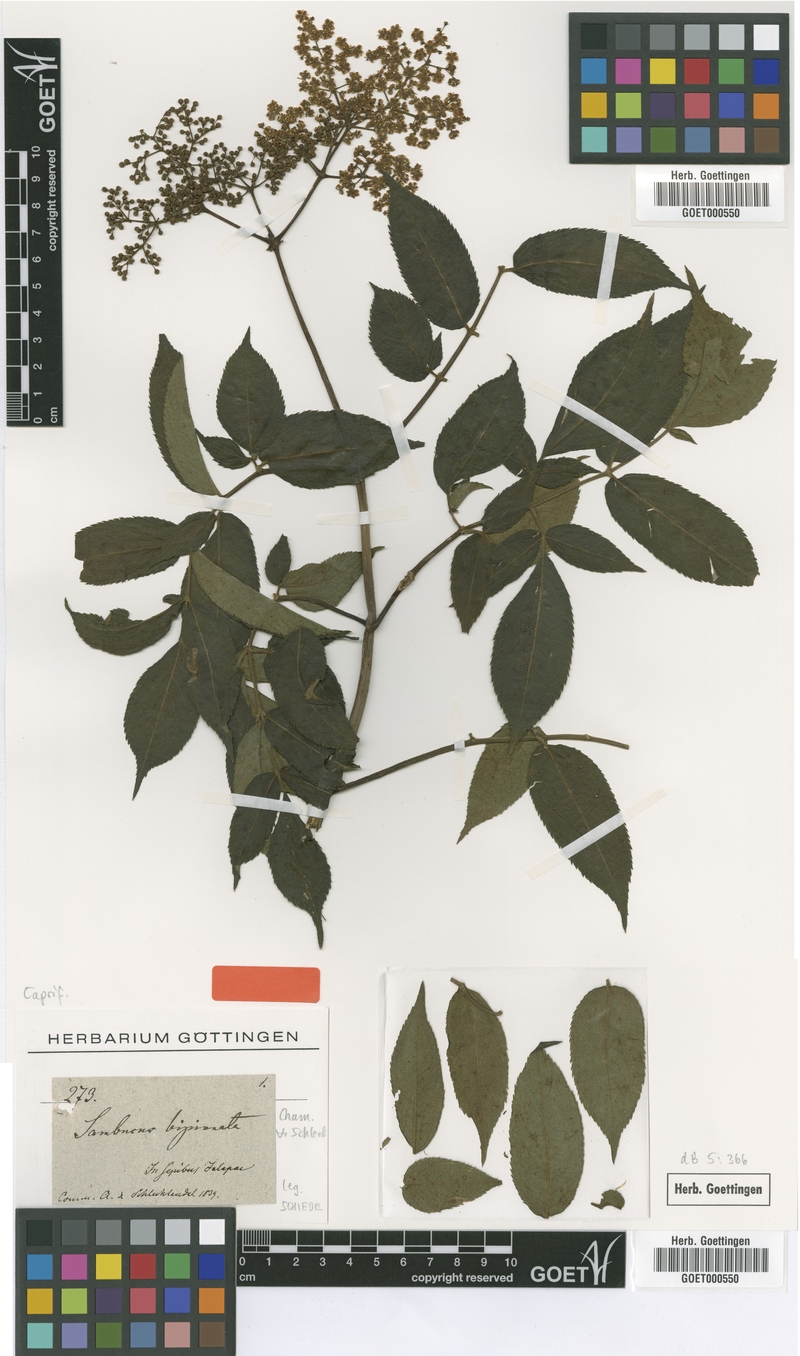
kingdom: Plantae
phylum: Tracheophyta
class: Magnoliopsida
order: Dipsacales
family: Viburnaceae
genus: Sambucus
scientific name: Sambucus mexicana
